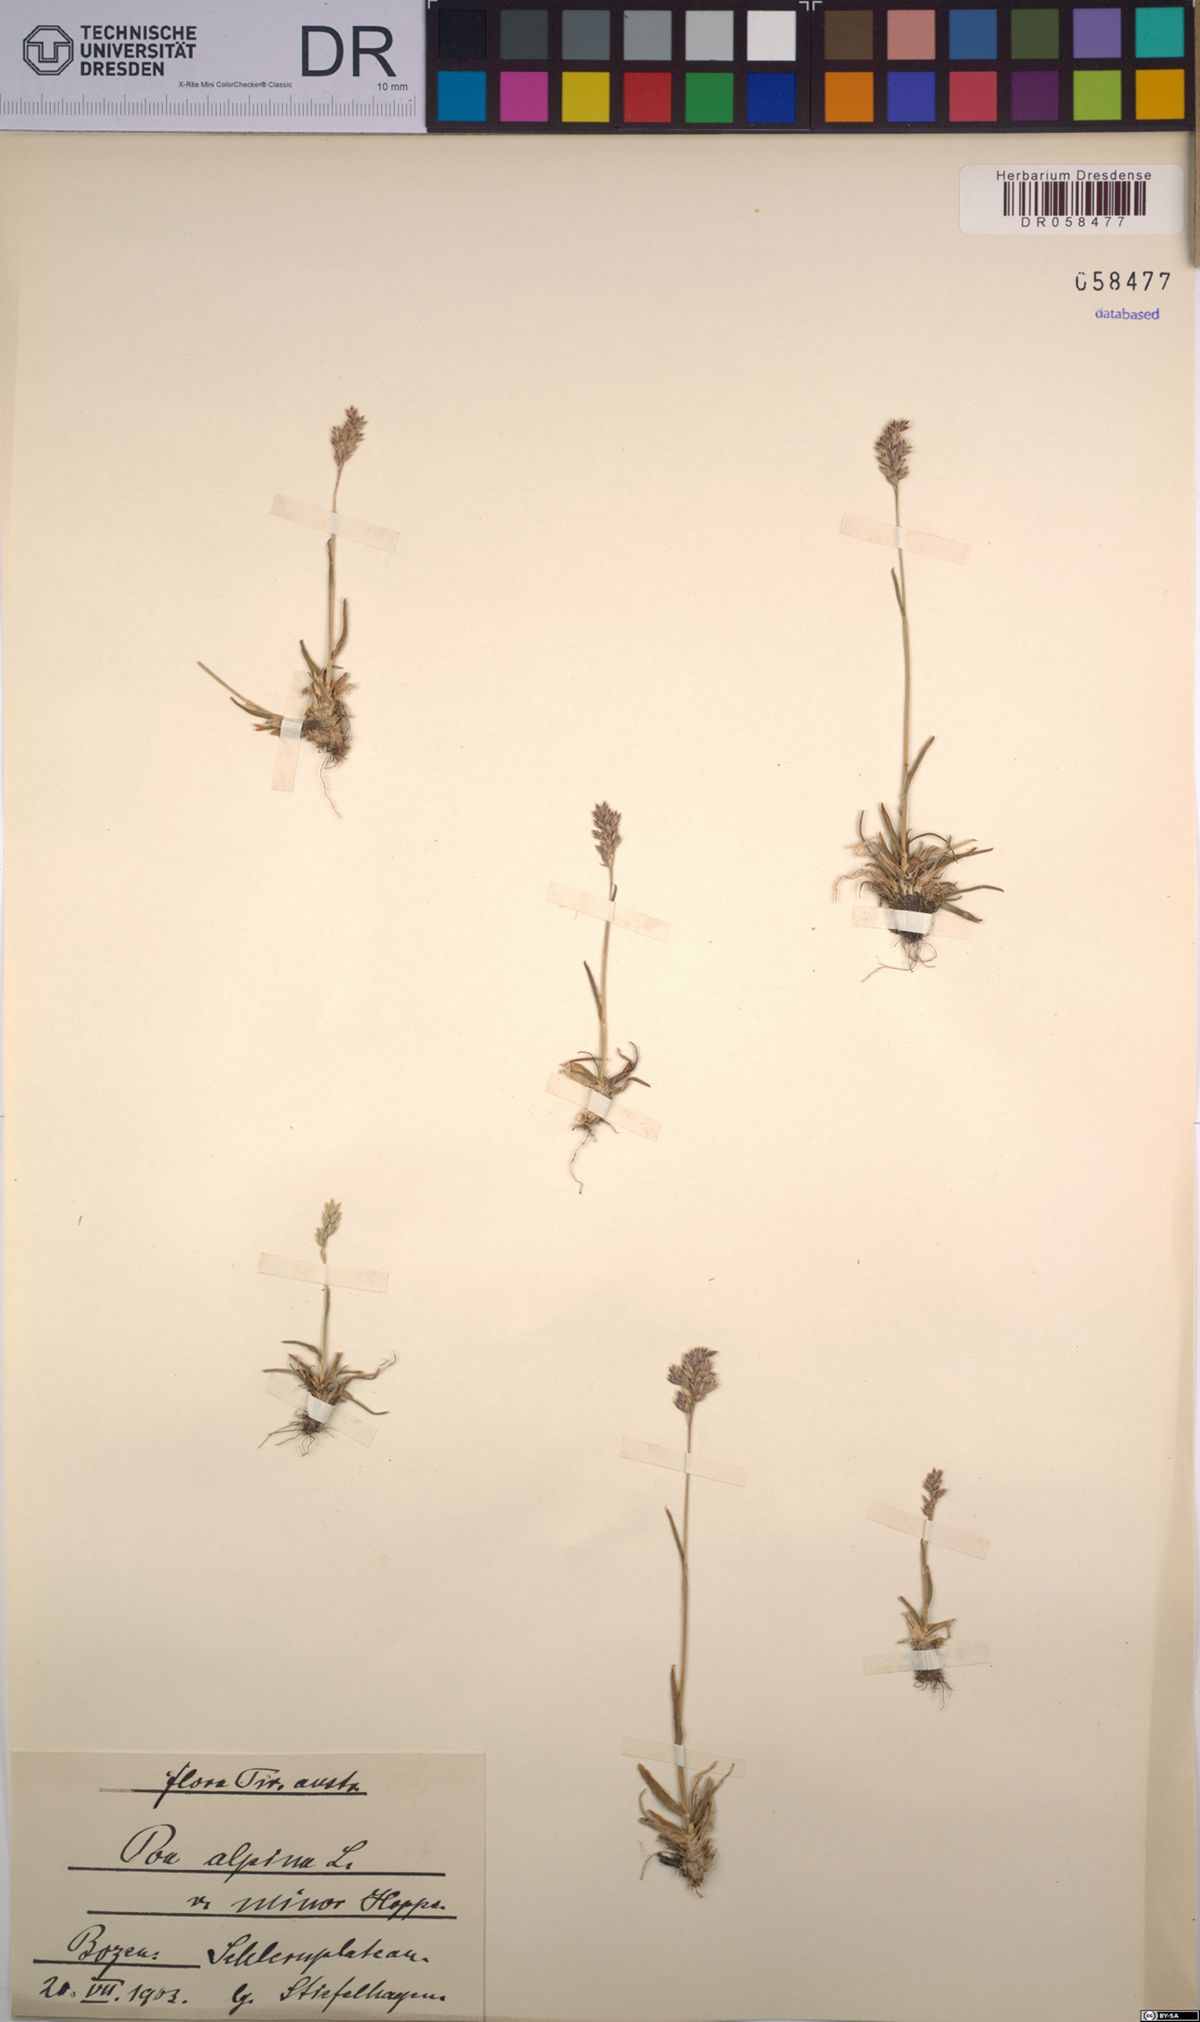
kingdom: Plantae
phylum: Tracheophyta
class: Liliopsida
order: Poales
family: Poaceae
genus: Poa
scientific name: Poa alpina
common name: Alpine bluegrass
